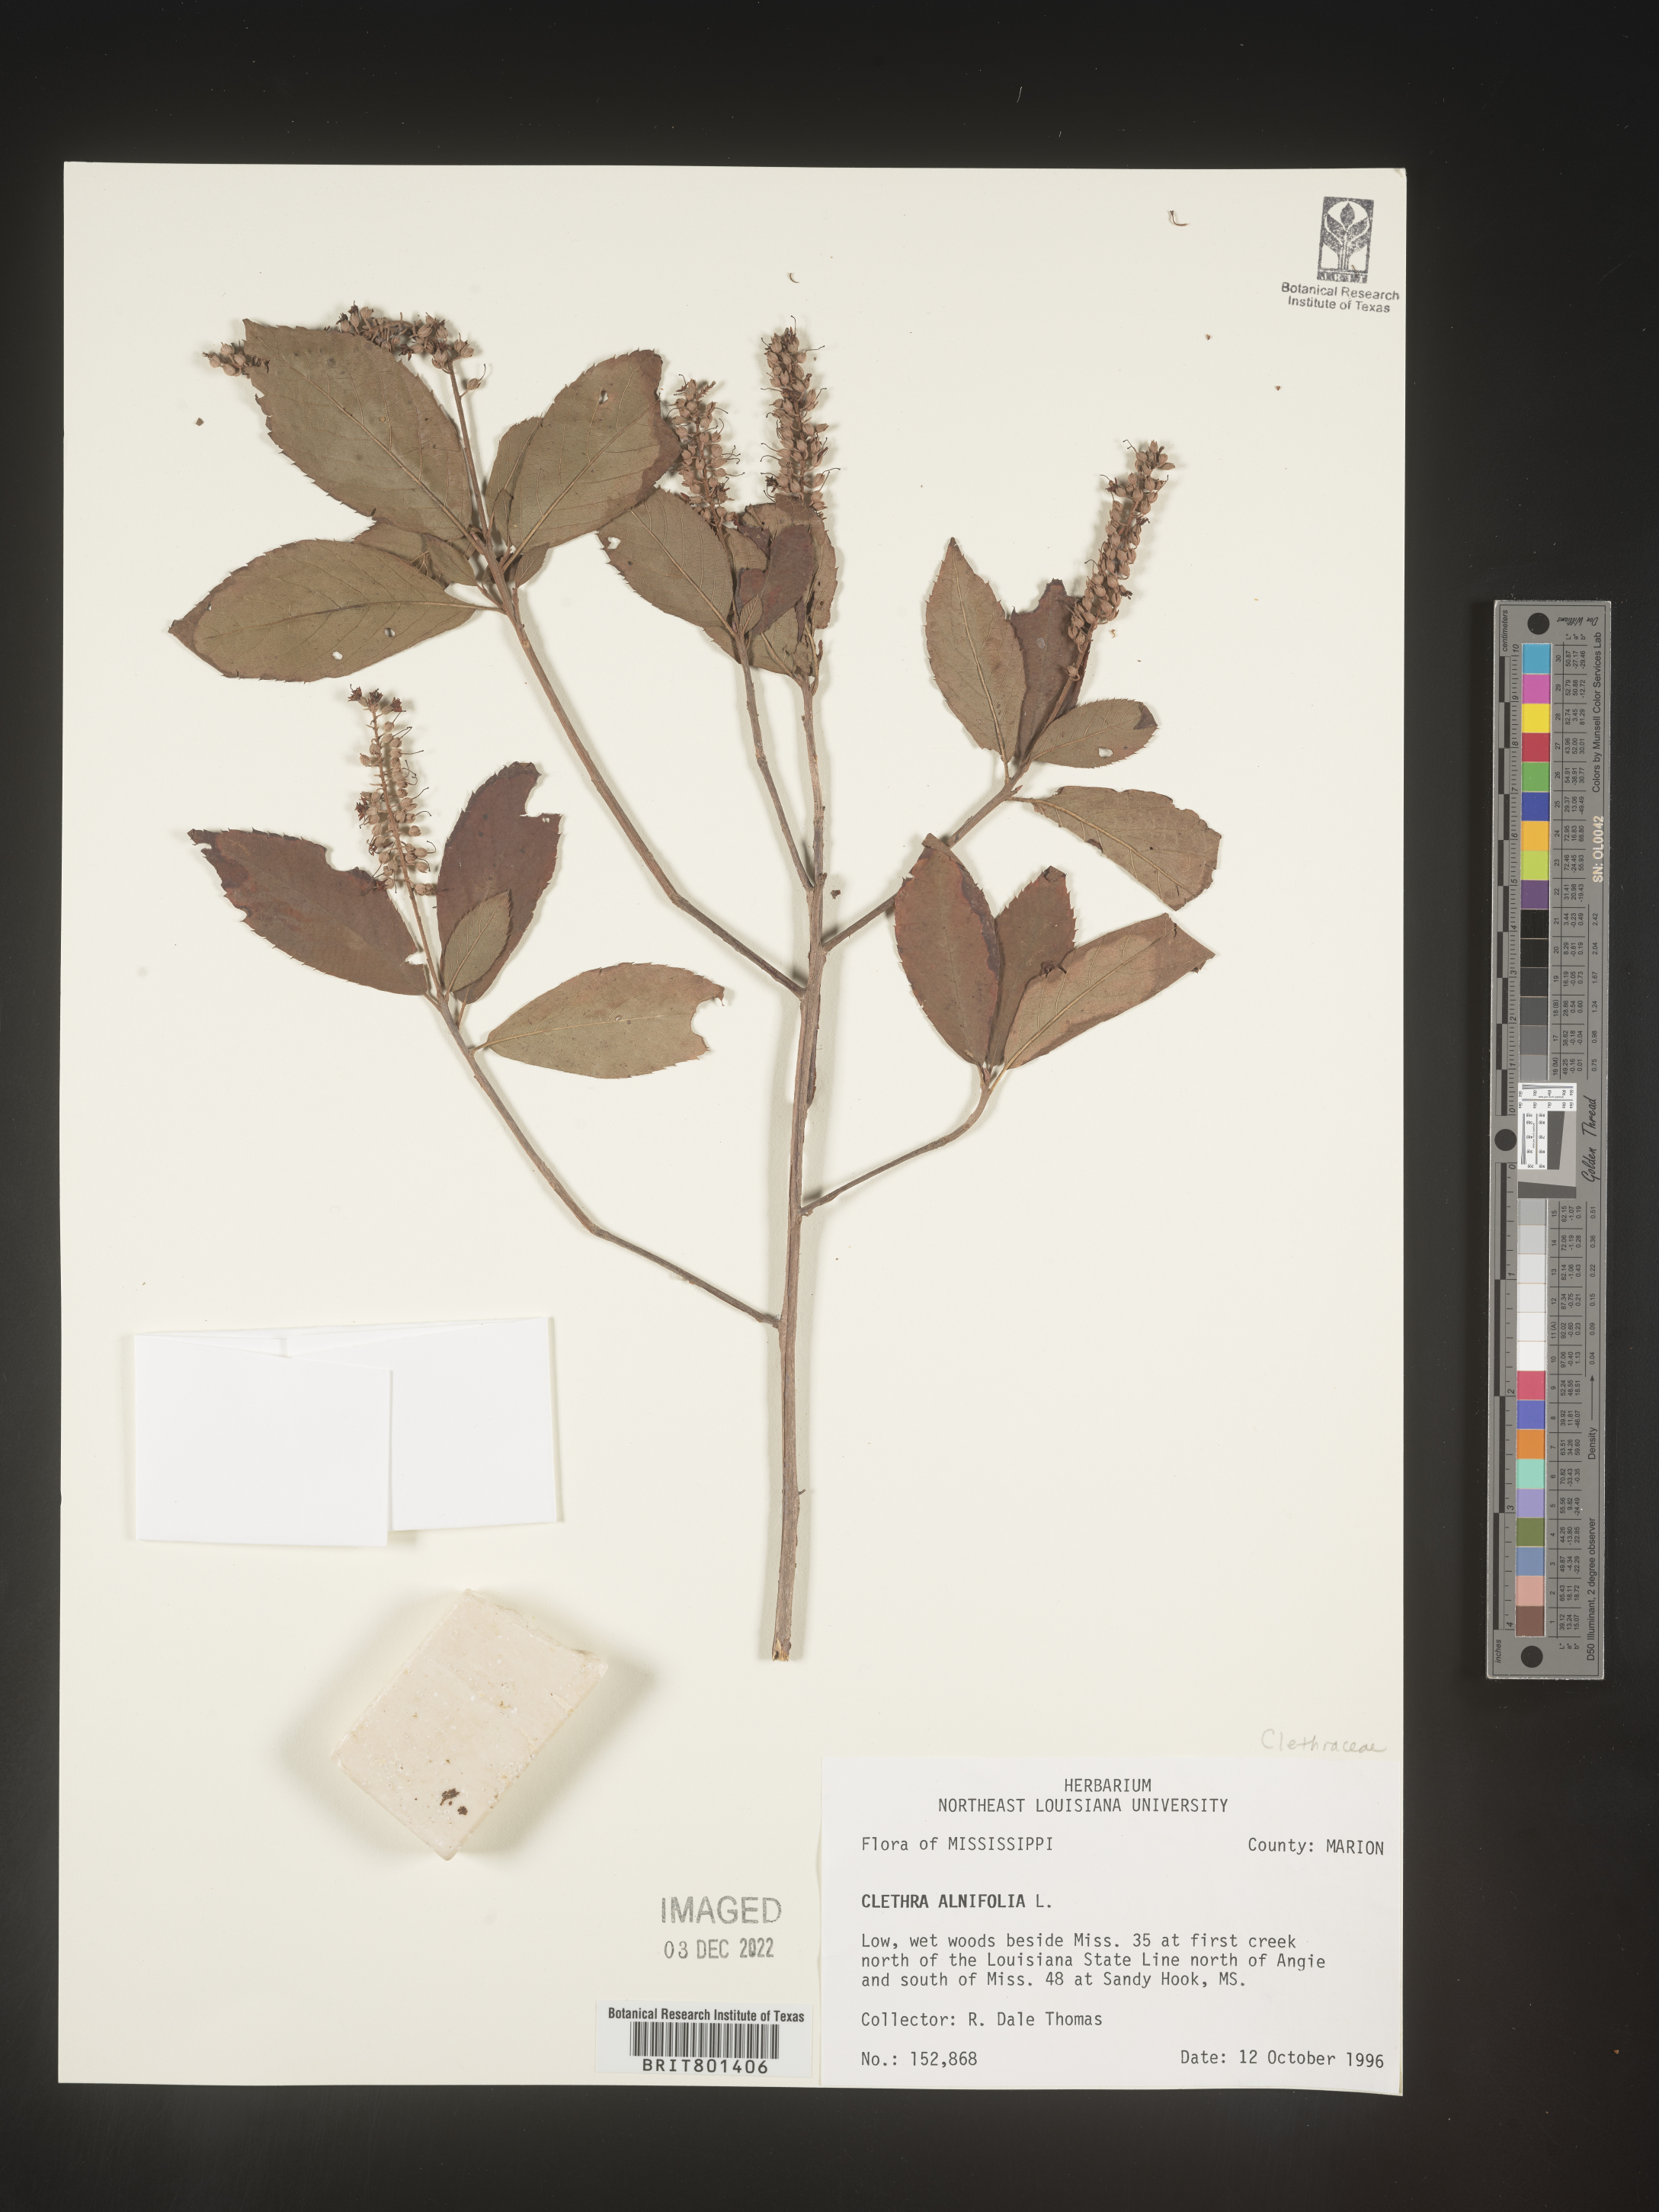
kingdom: Plantae
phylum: Tracheophyta
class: Magnoliopsida
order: Ericales
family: Clethraceae
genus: Clethra
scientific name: Clethra alnifolia
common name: Sweet pepperbush
